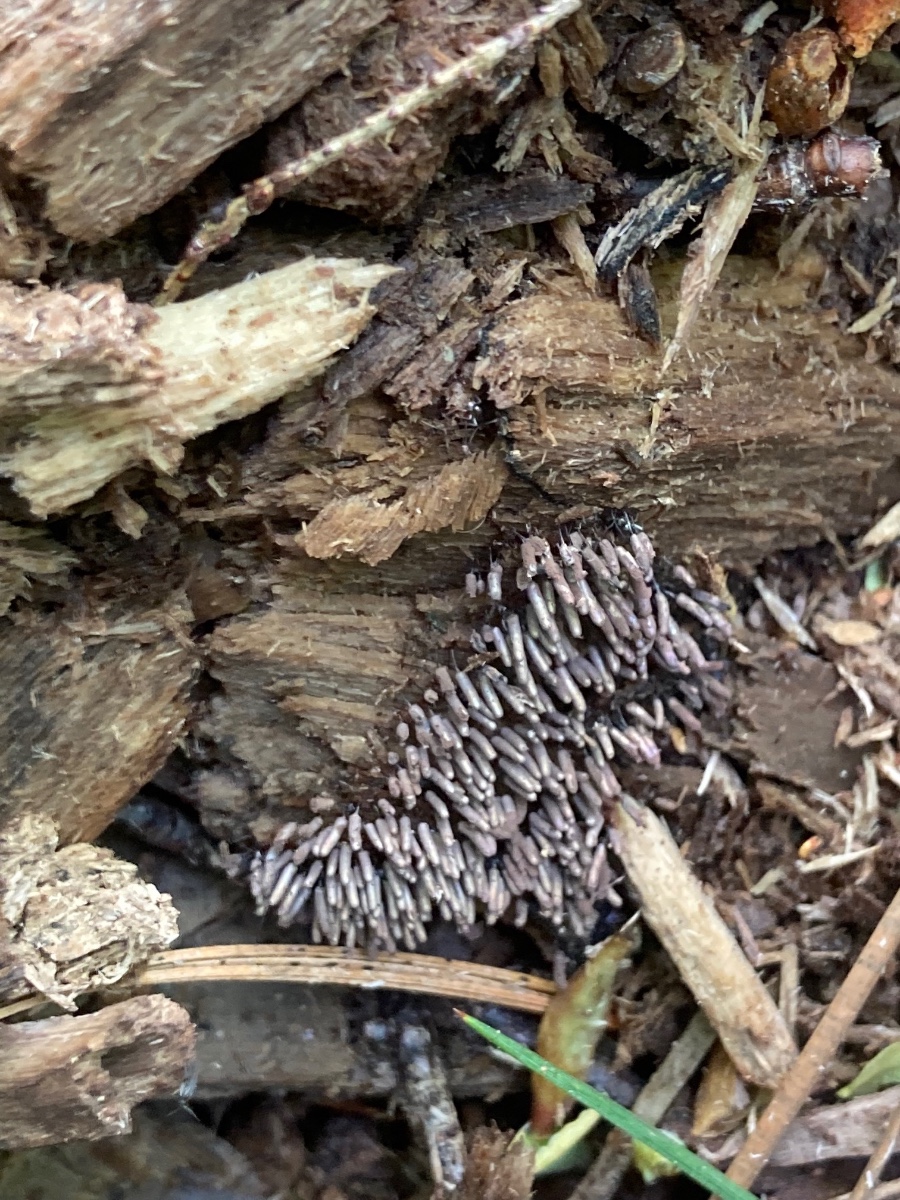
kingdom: Protozoa
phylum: Mycetozoa
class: Myxomycetes
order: Stemonitidales
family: Stemonitidaceae
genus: Stemonitopsis
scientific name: Stemonitopsis typhina
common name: skinnende støvkølle
